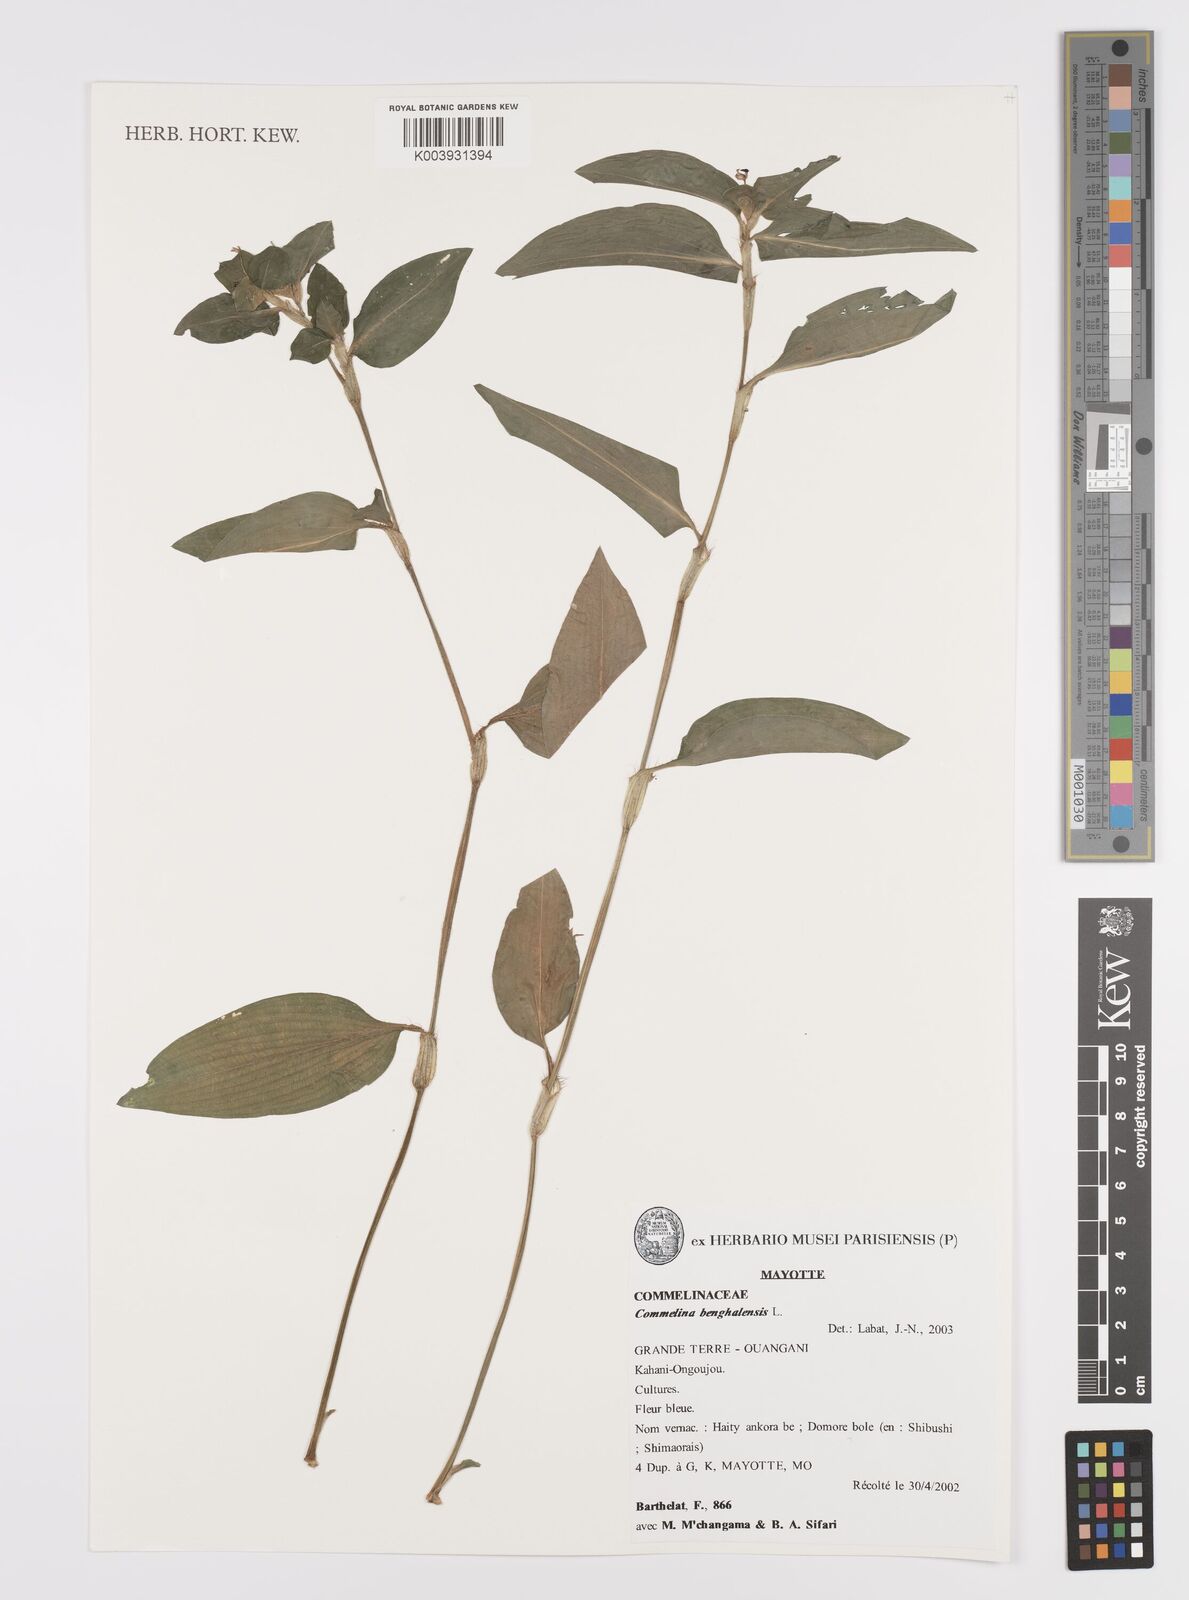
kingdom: Plantae
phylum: Tracheophyta
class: Liliopsida
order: Commelinales
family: Commelinaceae
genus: Commelina
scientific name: Commelina benghalensis
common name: Jio
